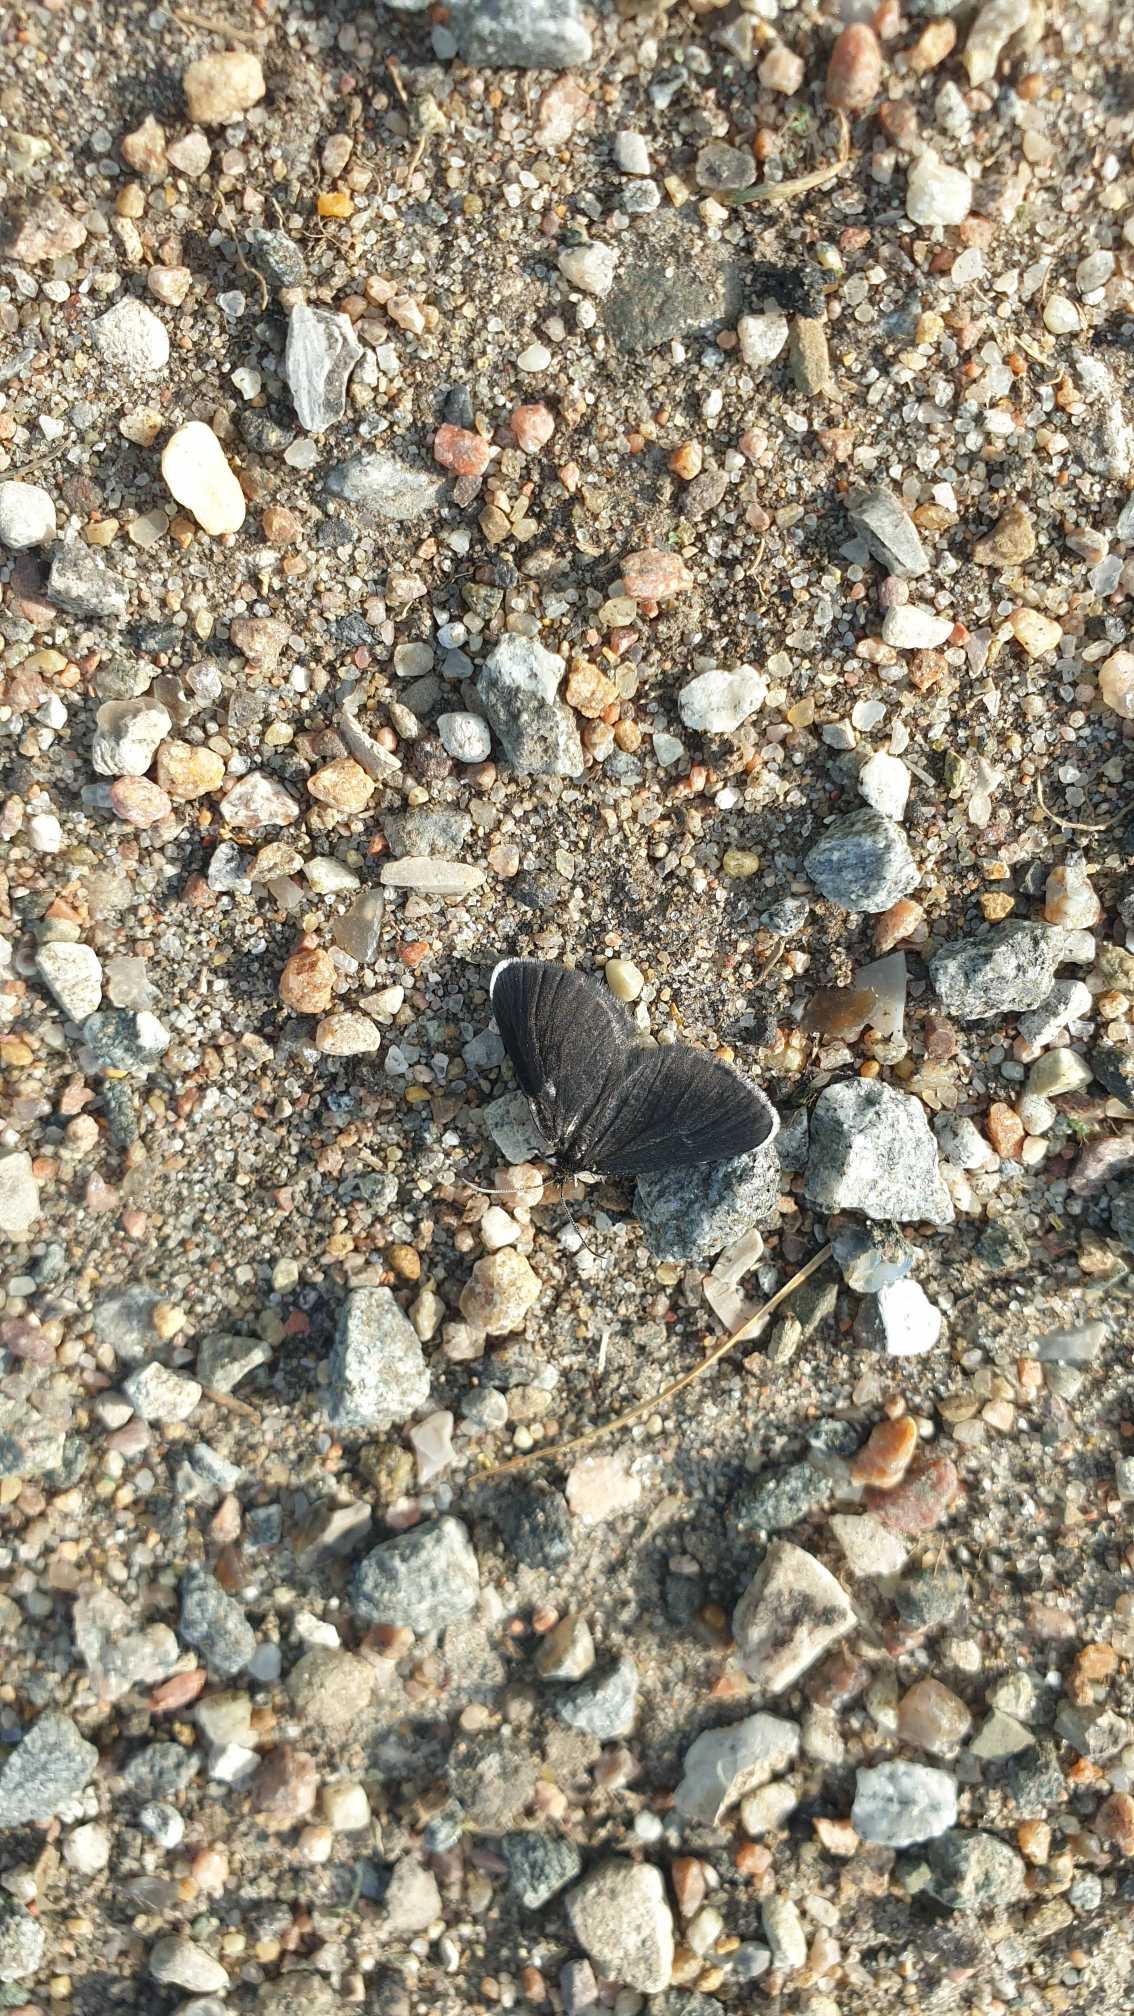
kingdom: Animalia
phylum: Arthropoda
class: Insecta
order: Lepidoptera
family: Geometridae
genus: Odezia
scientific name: Odezia atrata
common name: Sort måler
